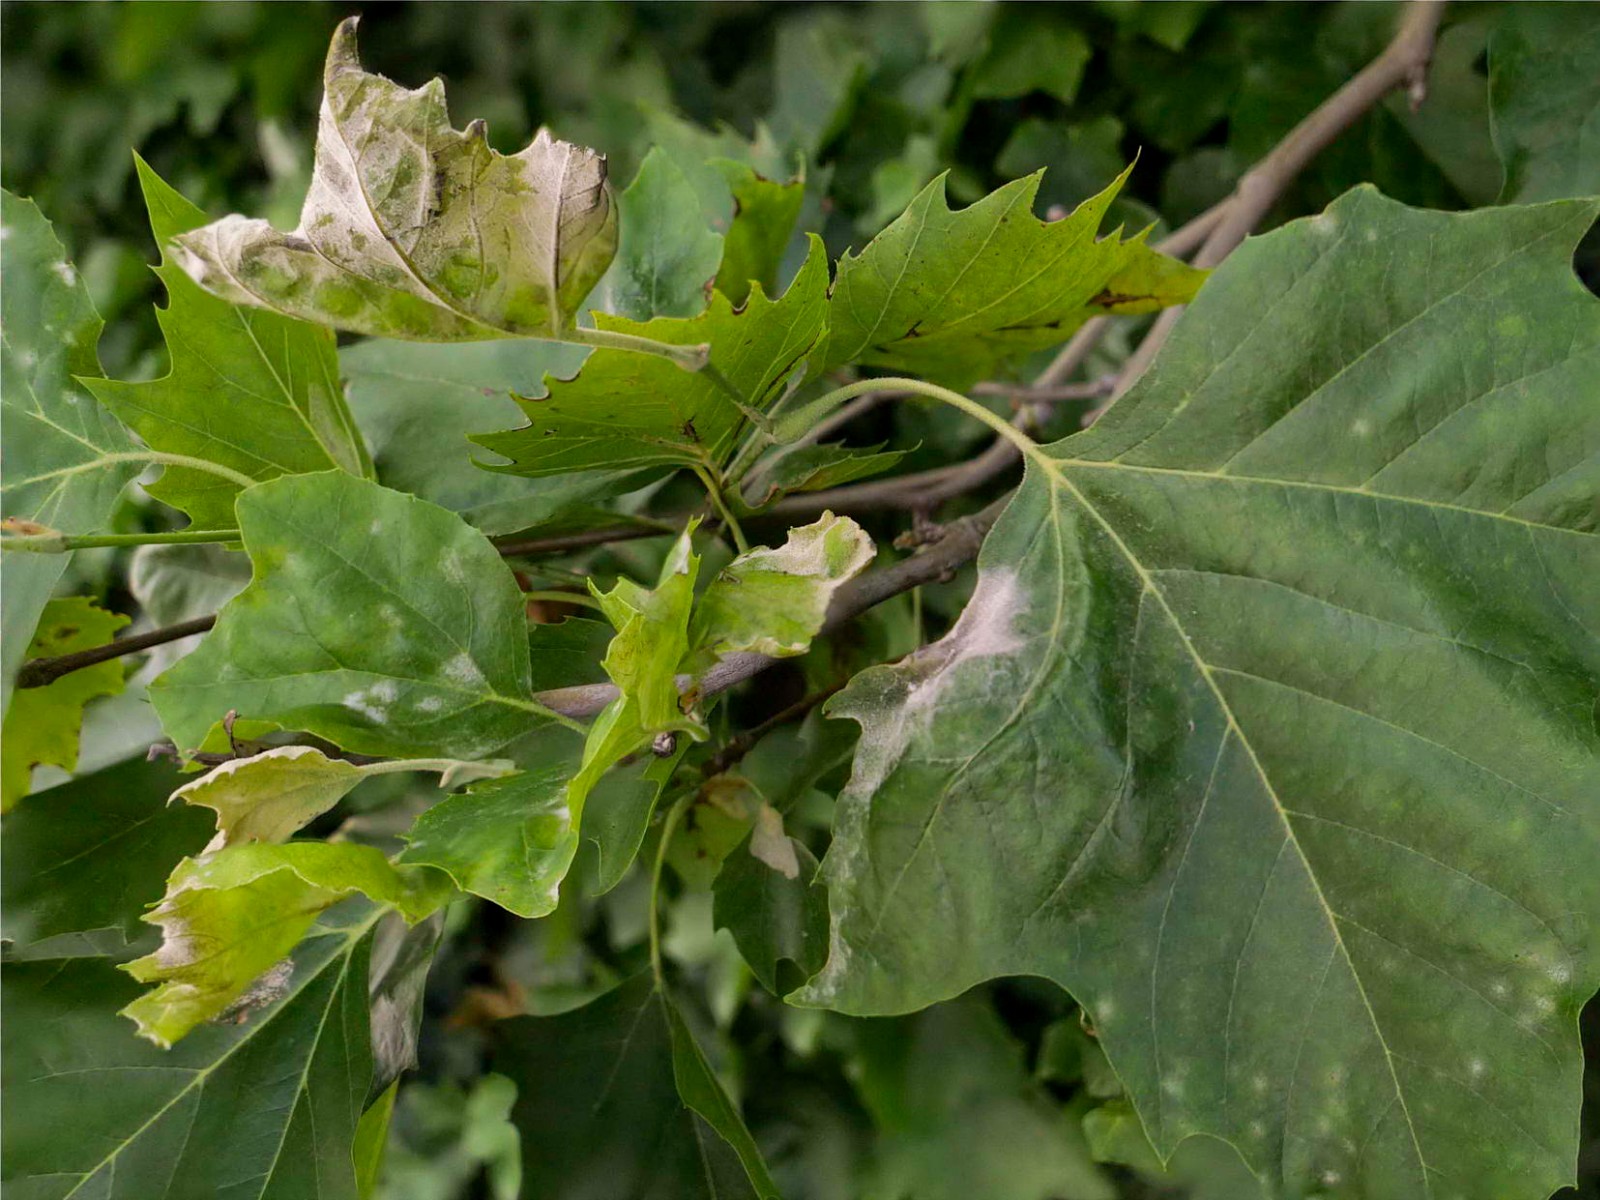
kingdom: Fungi
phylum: Ascomycota
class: Leotiomycetes
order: Helotiales
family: Erysiphaceae
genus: Erysiphe
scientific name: Erysiphe platani
